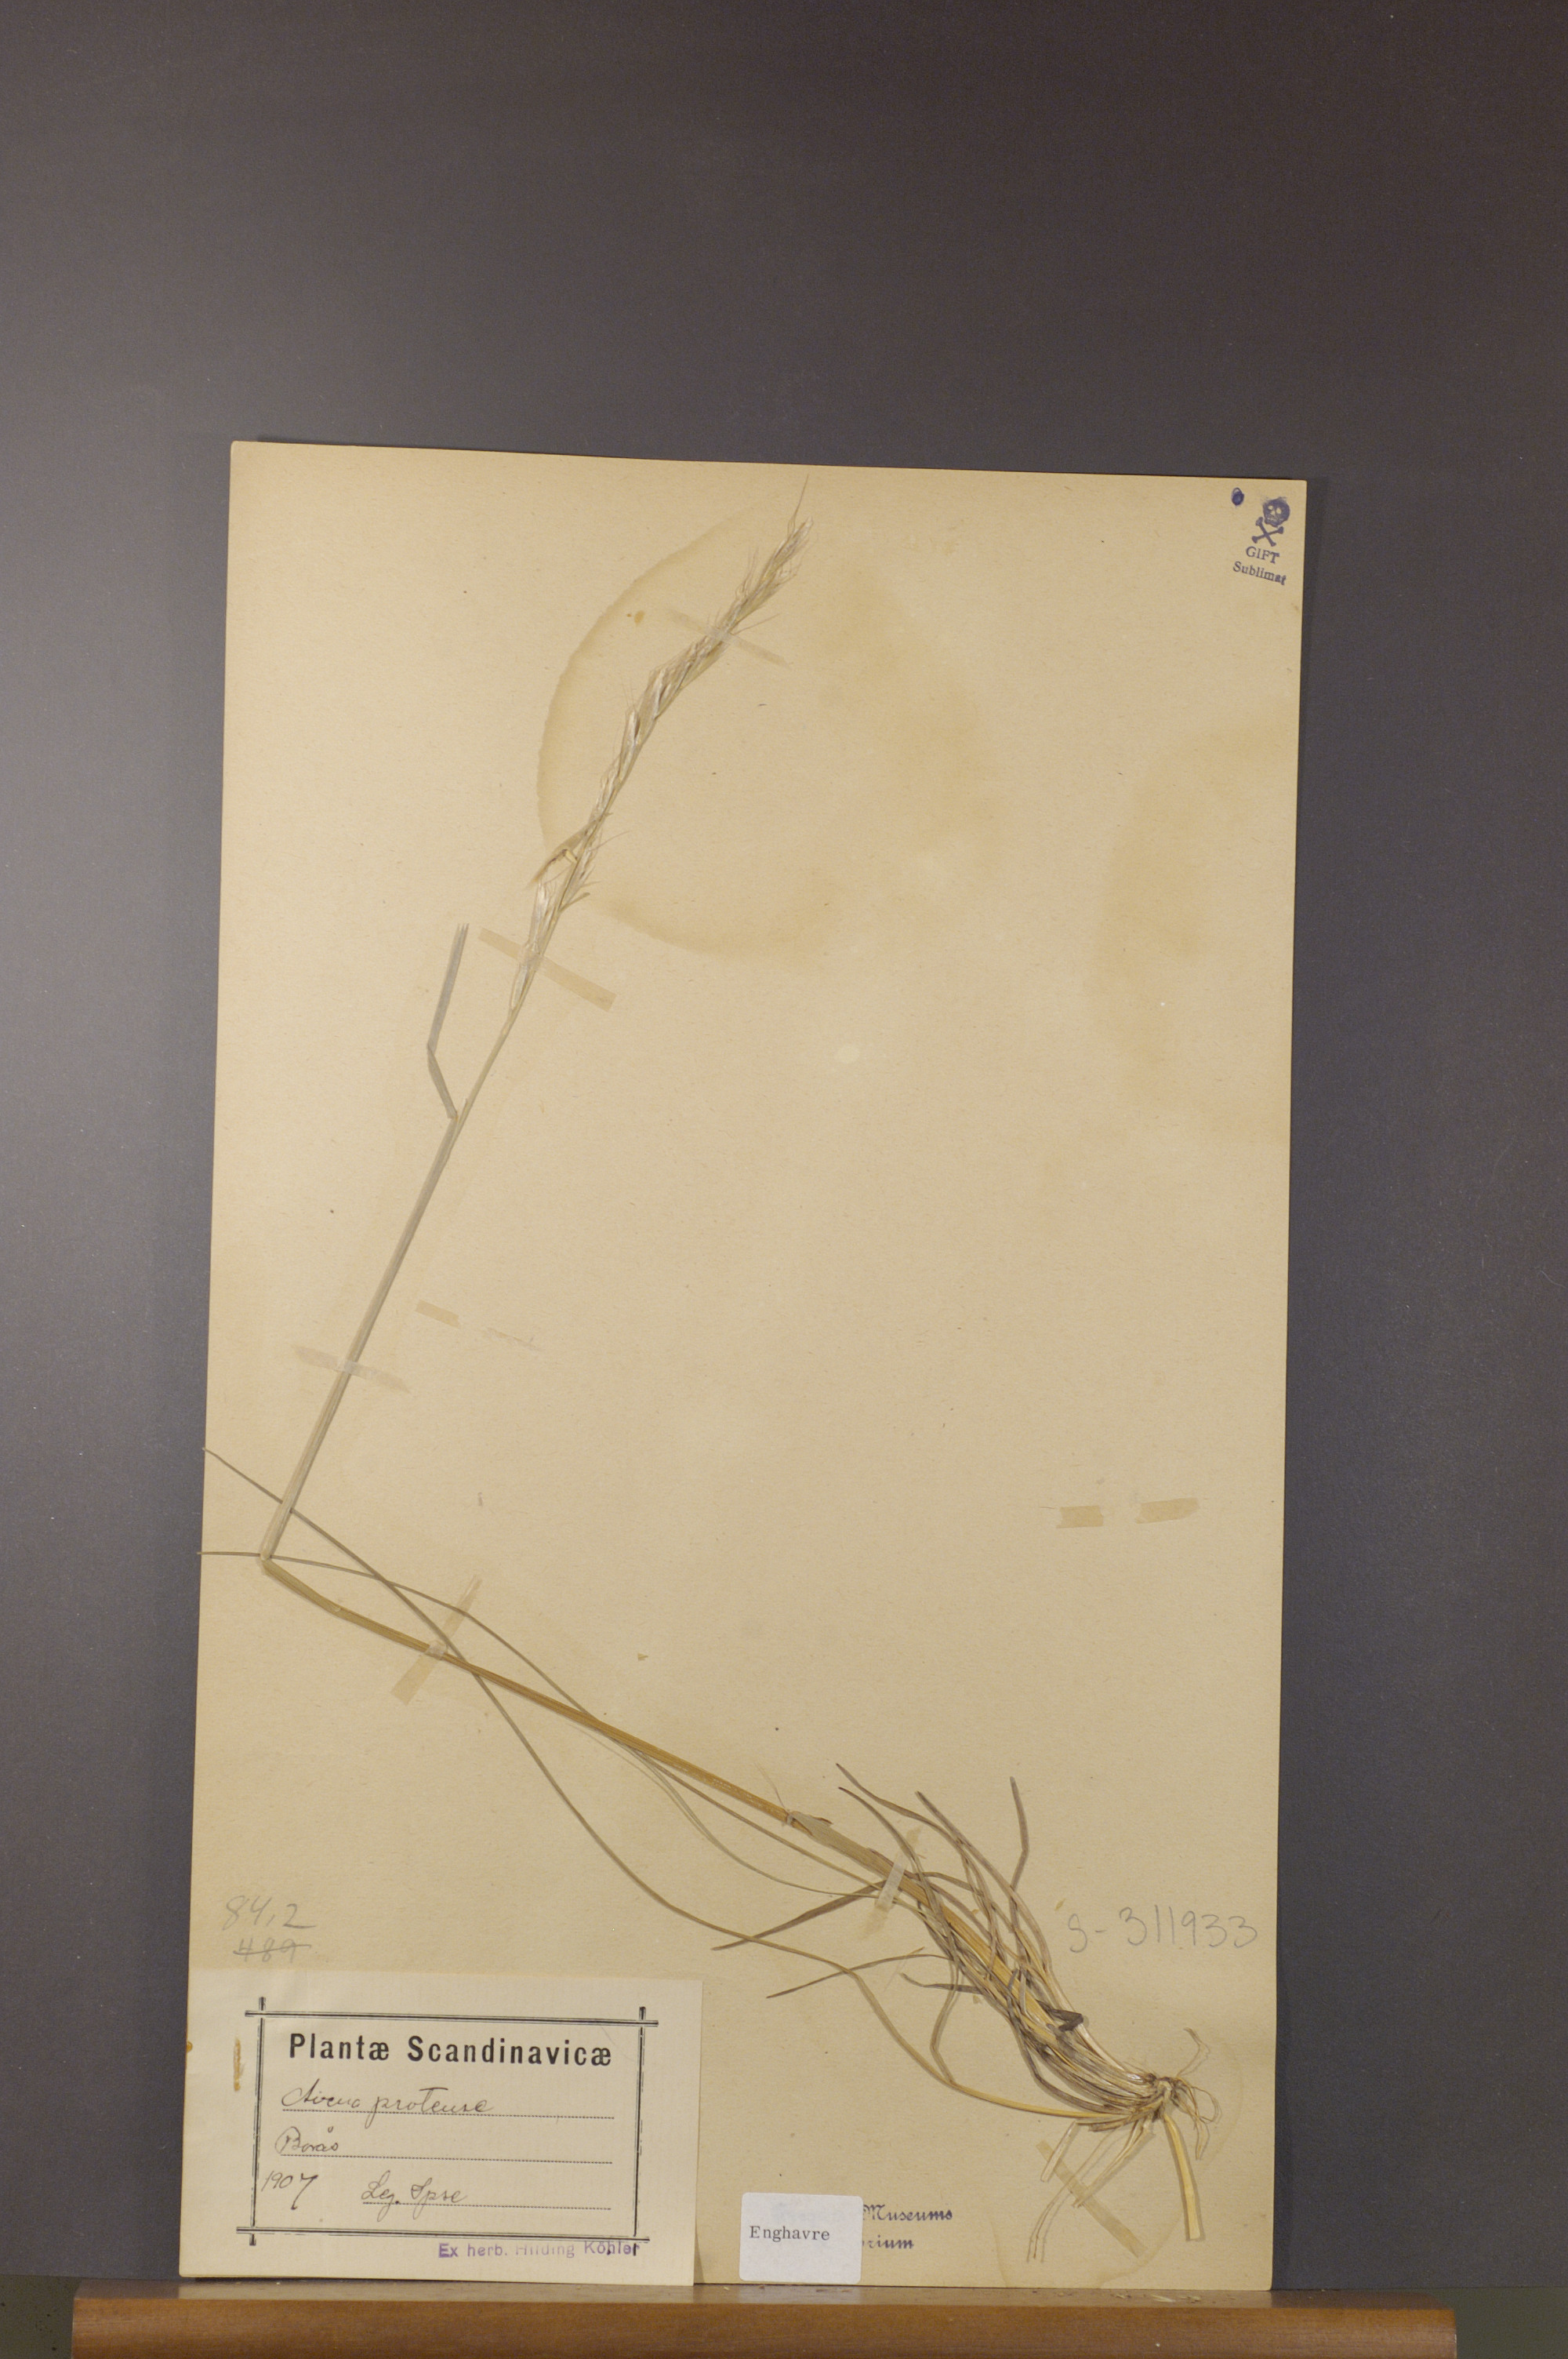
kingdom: Plantae
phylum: Tracheophyta
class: Liliopsida
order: Poales
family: Poaceae
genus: Helictochloa
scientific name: Helictochloa pratensis
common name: Meadow oat grass
